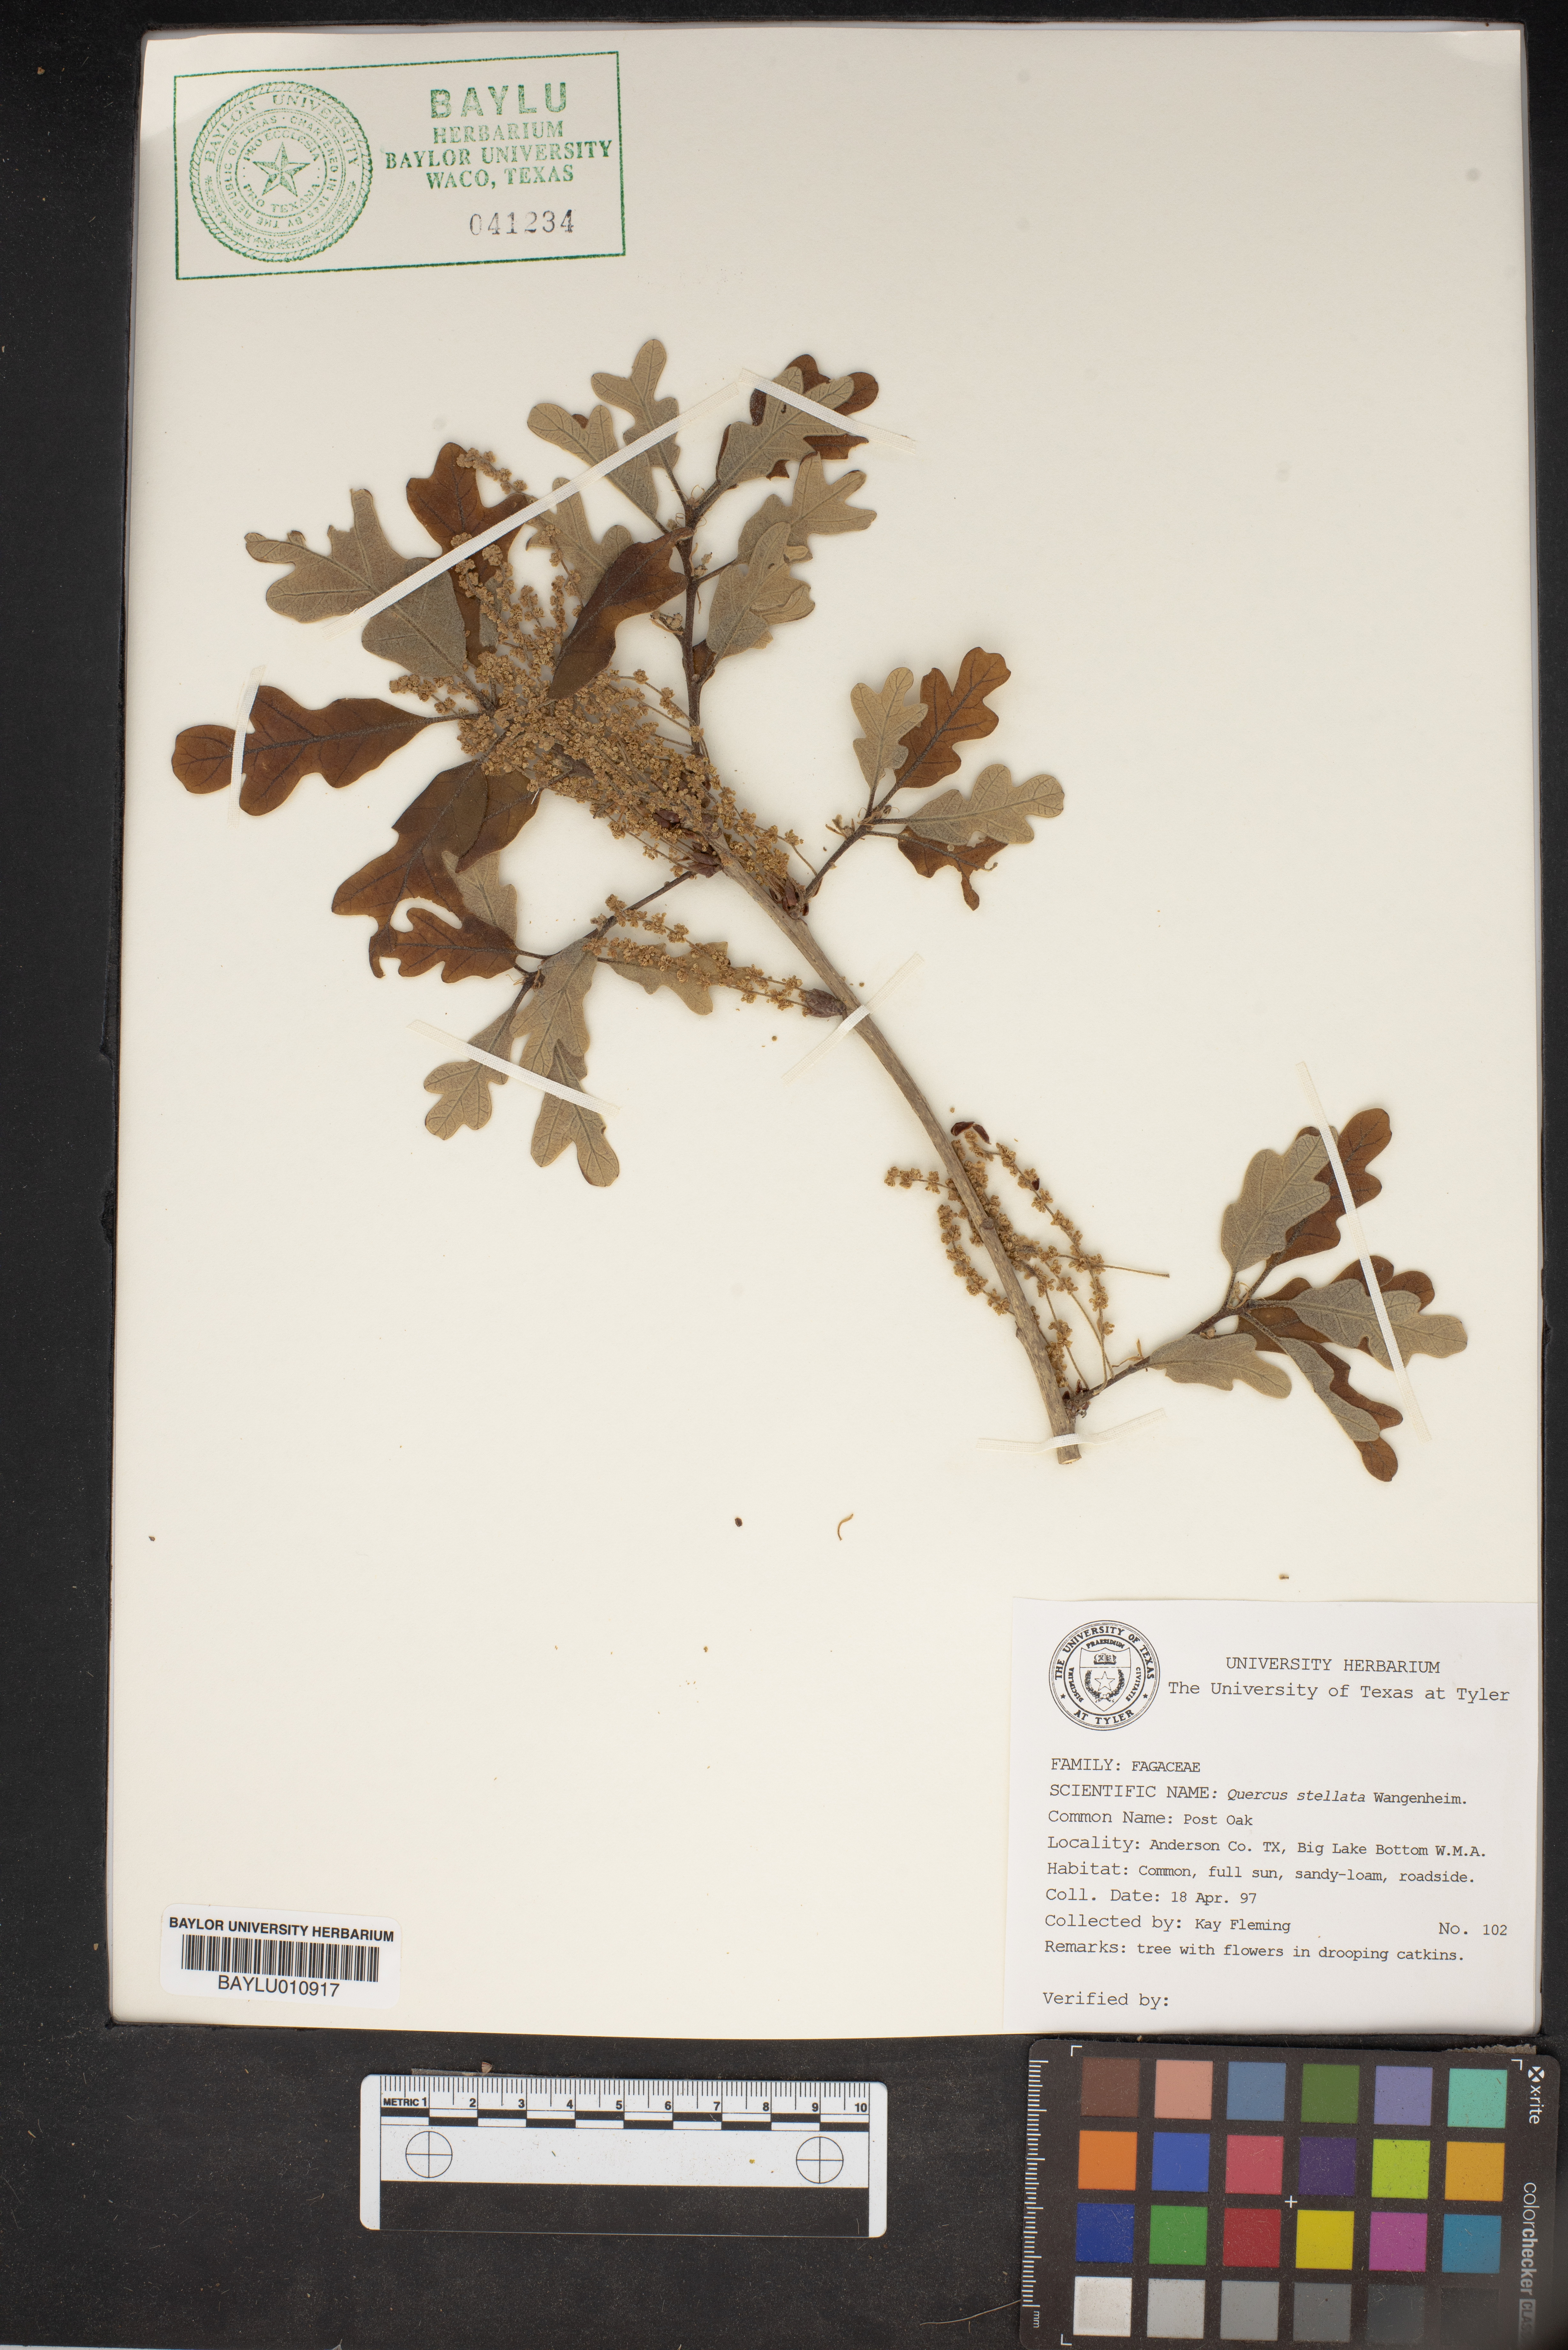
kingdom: Plantae
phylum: Tracheophyta
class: Magnoliopsida
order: Fagales
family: Fagaceae
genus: Quercus
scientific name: Quercus stellata
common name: Post oak
